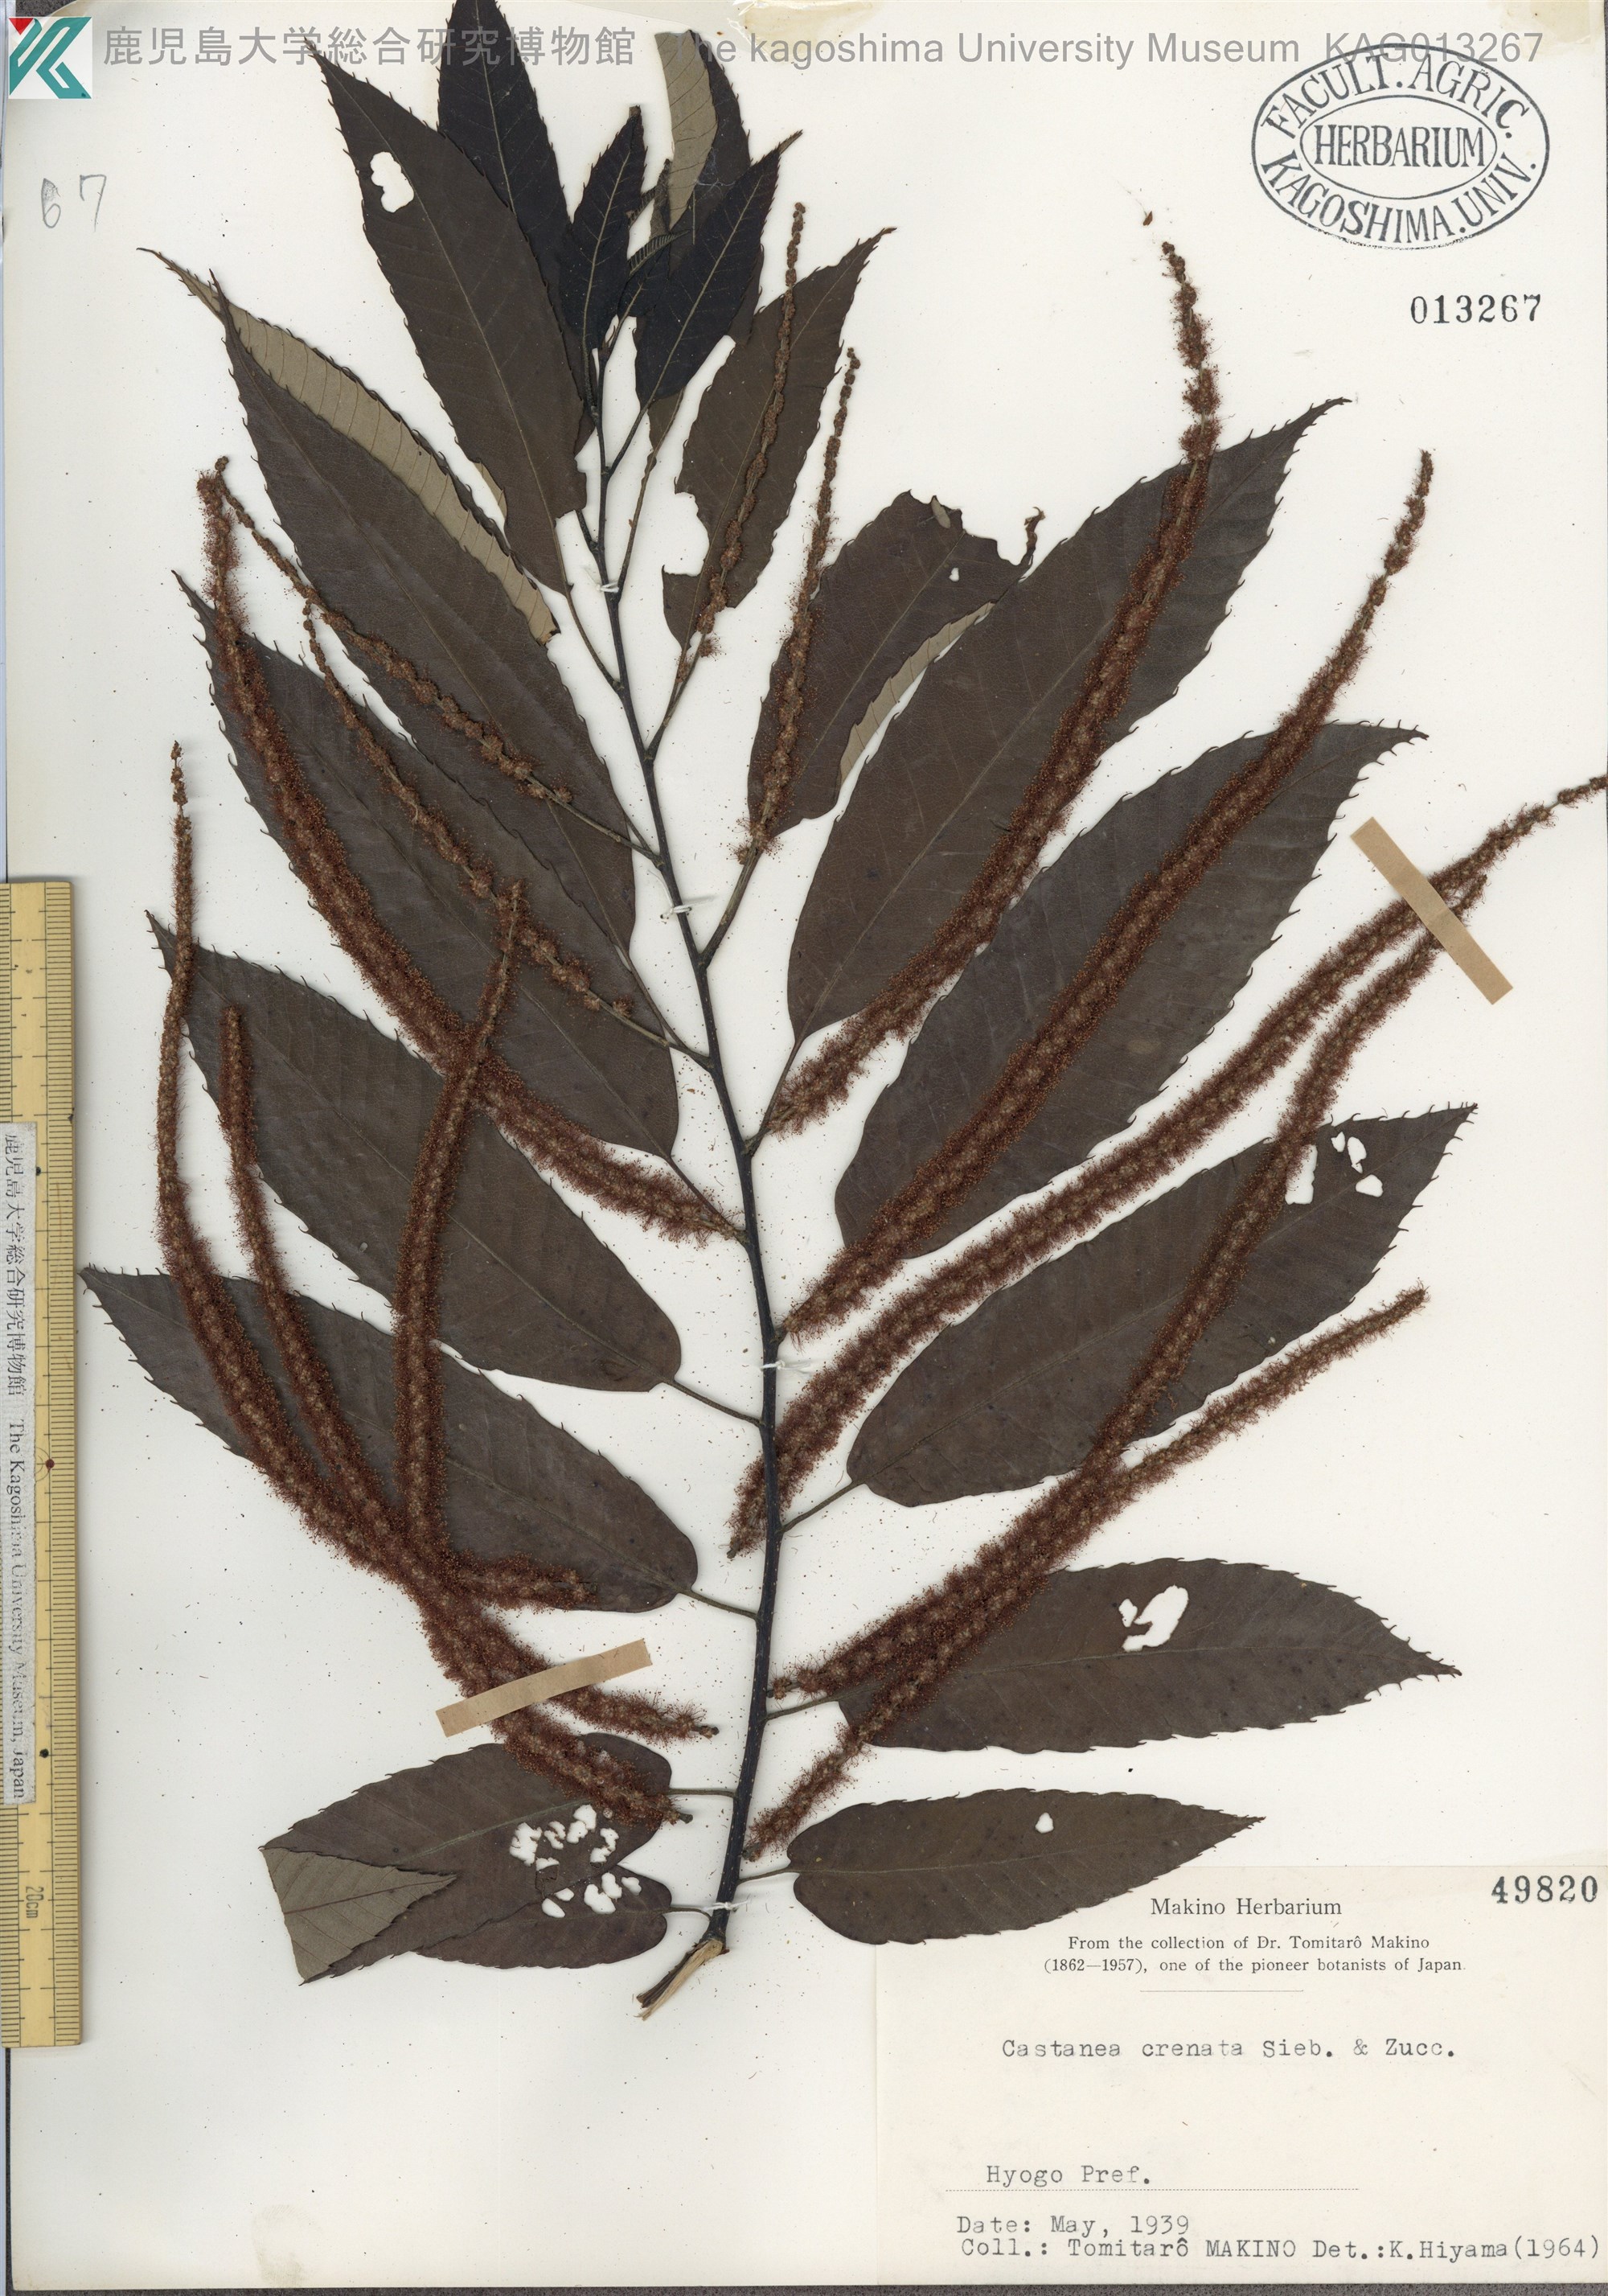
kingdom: Plantae
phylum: Tracheophyta
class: Magnoliopsida
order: Fagales
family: Fagaceae
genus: Castanea
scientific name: Castanea crenata
